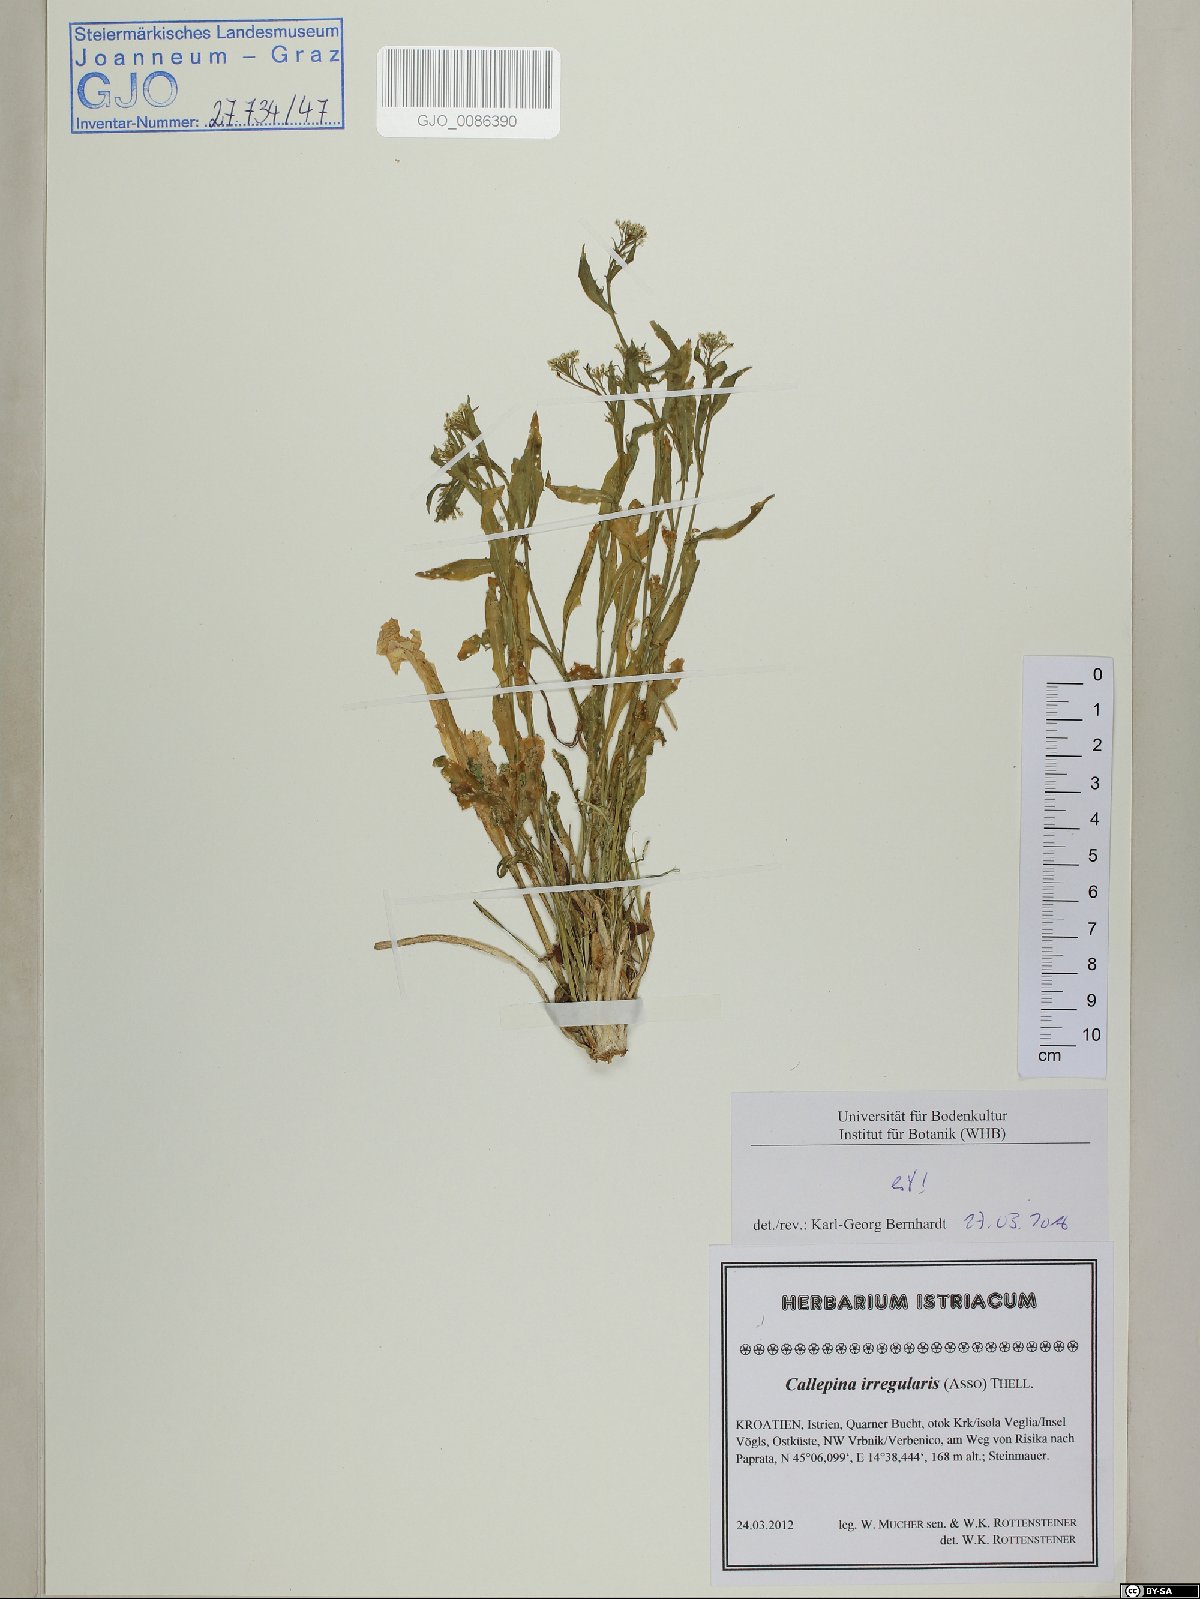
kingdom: Plantae
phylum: Tracheophyta
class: Magnoliopsida
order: Brassicales
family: Brassicaceae
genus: Calepina
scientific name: Calepina irregularis
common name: White ballmustard
